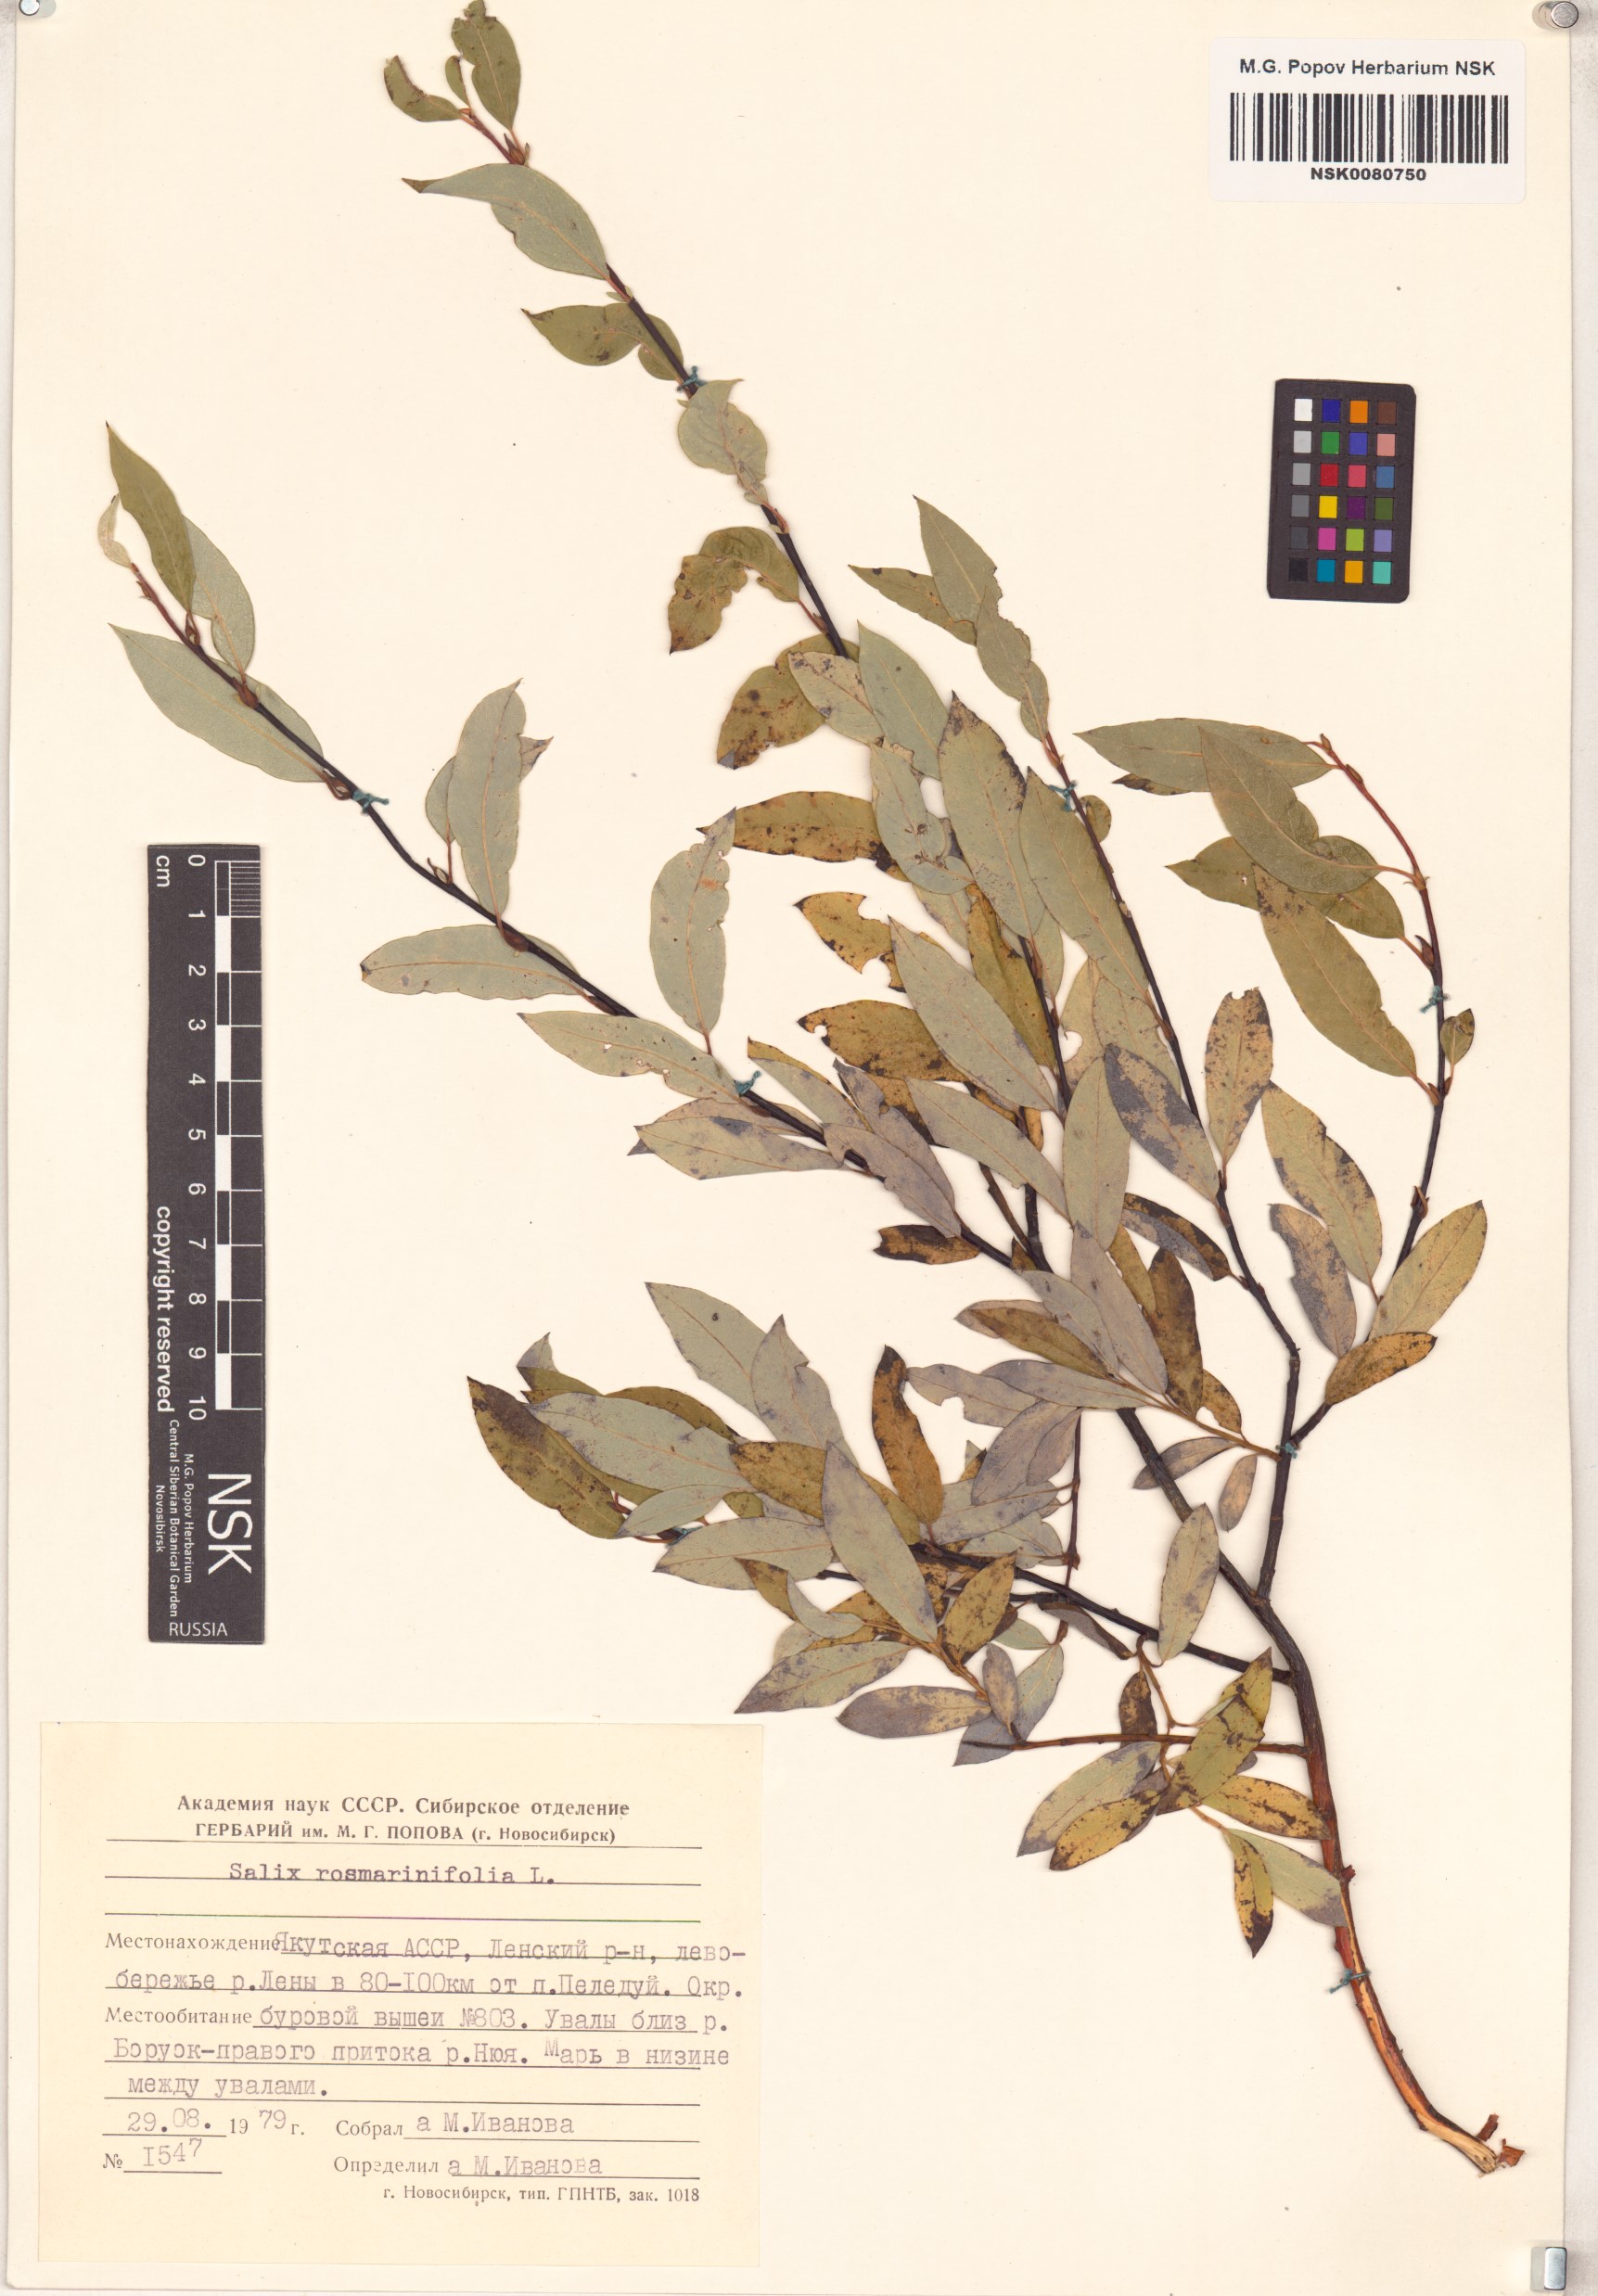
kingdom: Plantae
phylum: Tracheophyta
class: Magnoliopsida
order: Malpighiales
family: Salicaceae
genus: Salix
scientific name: Salix rosmarinifolia
